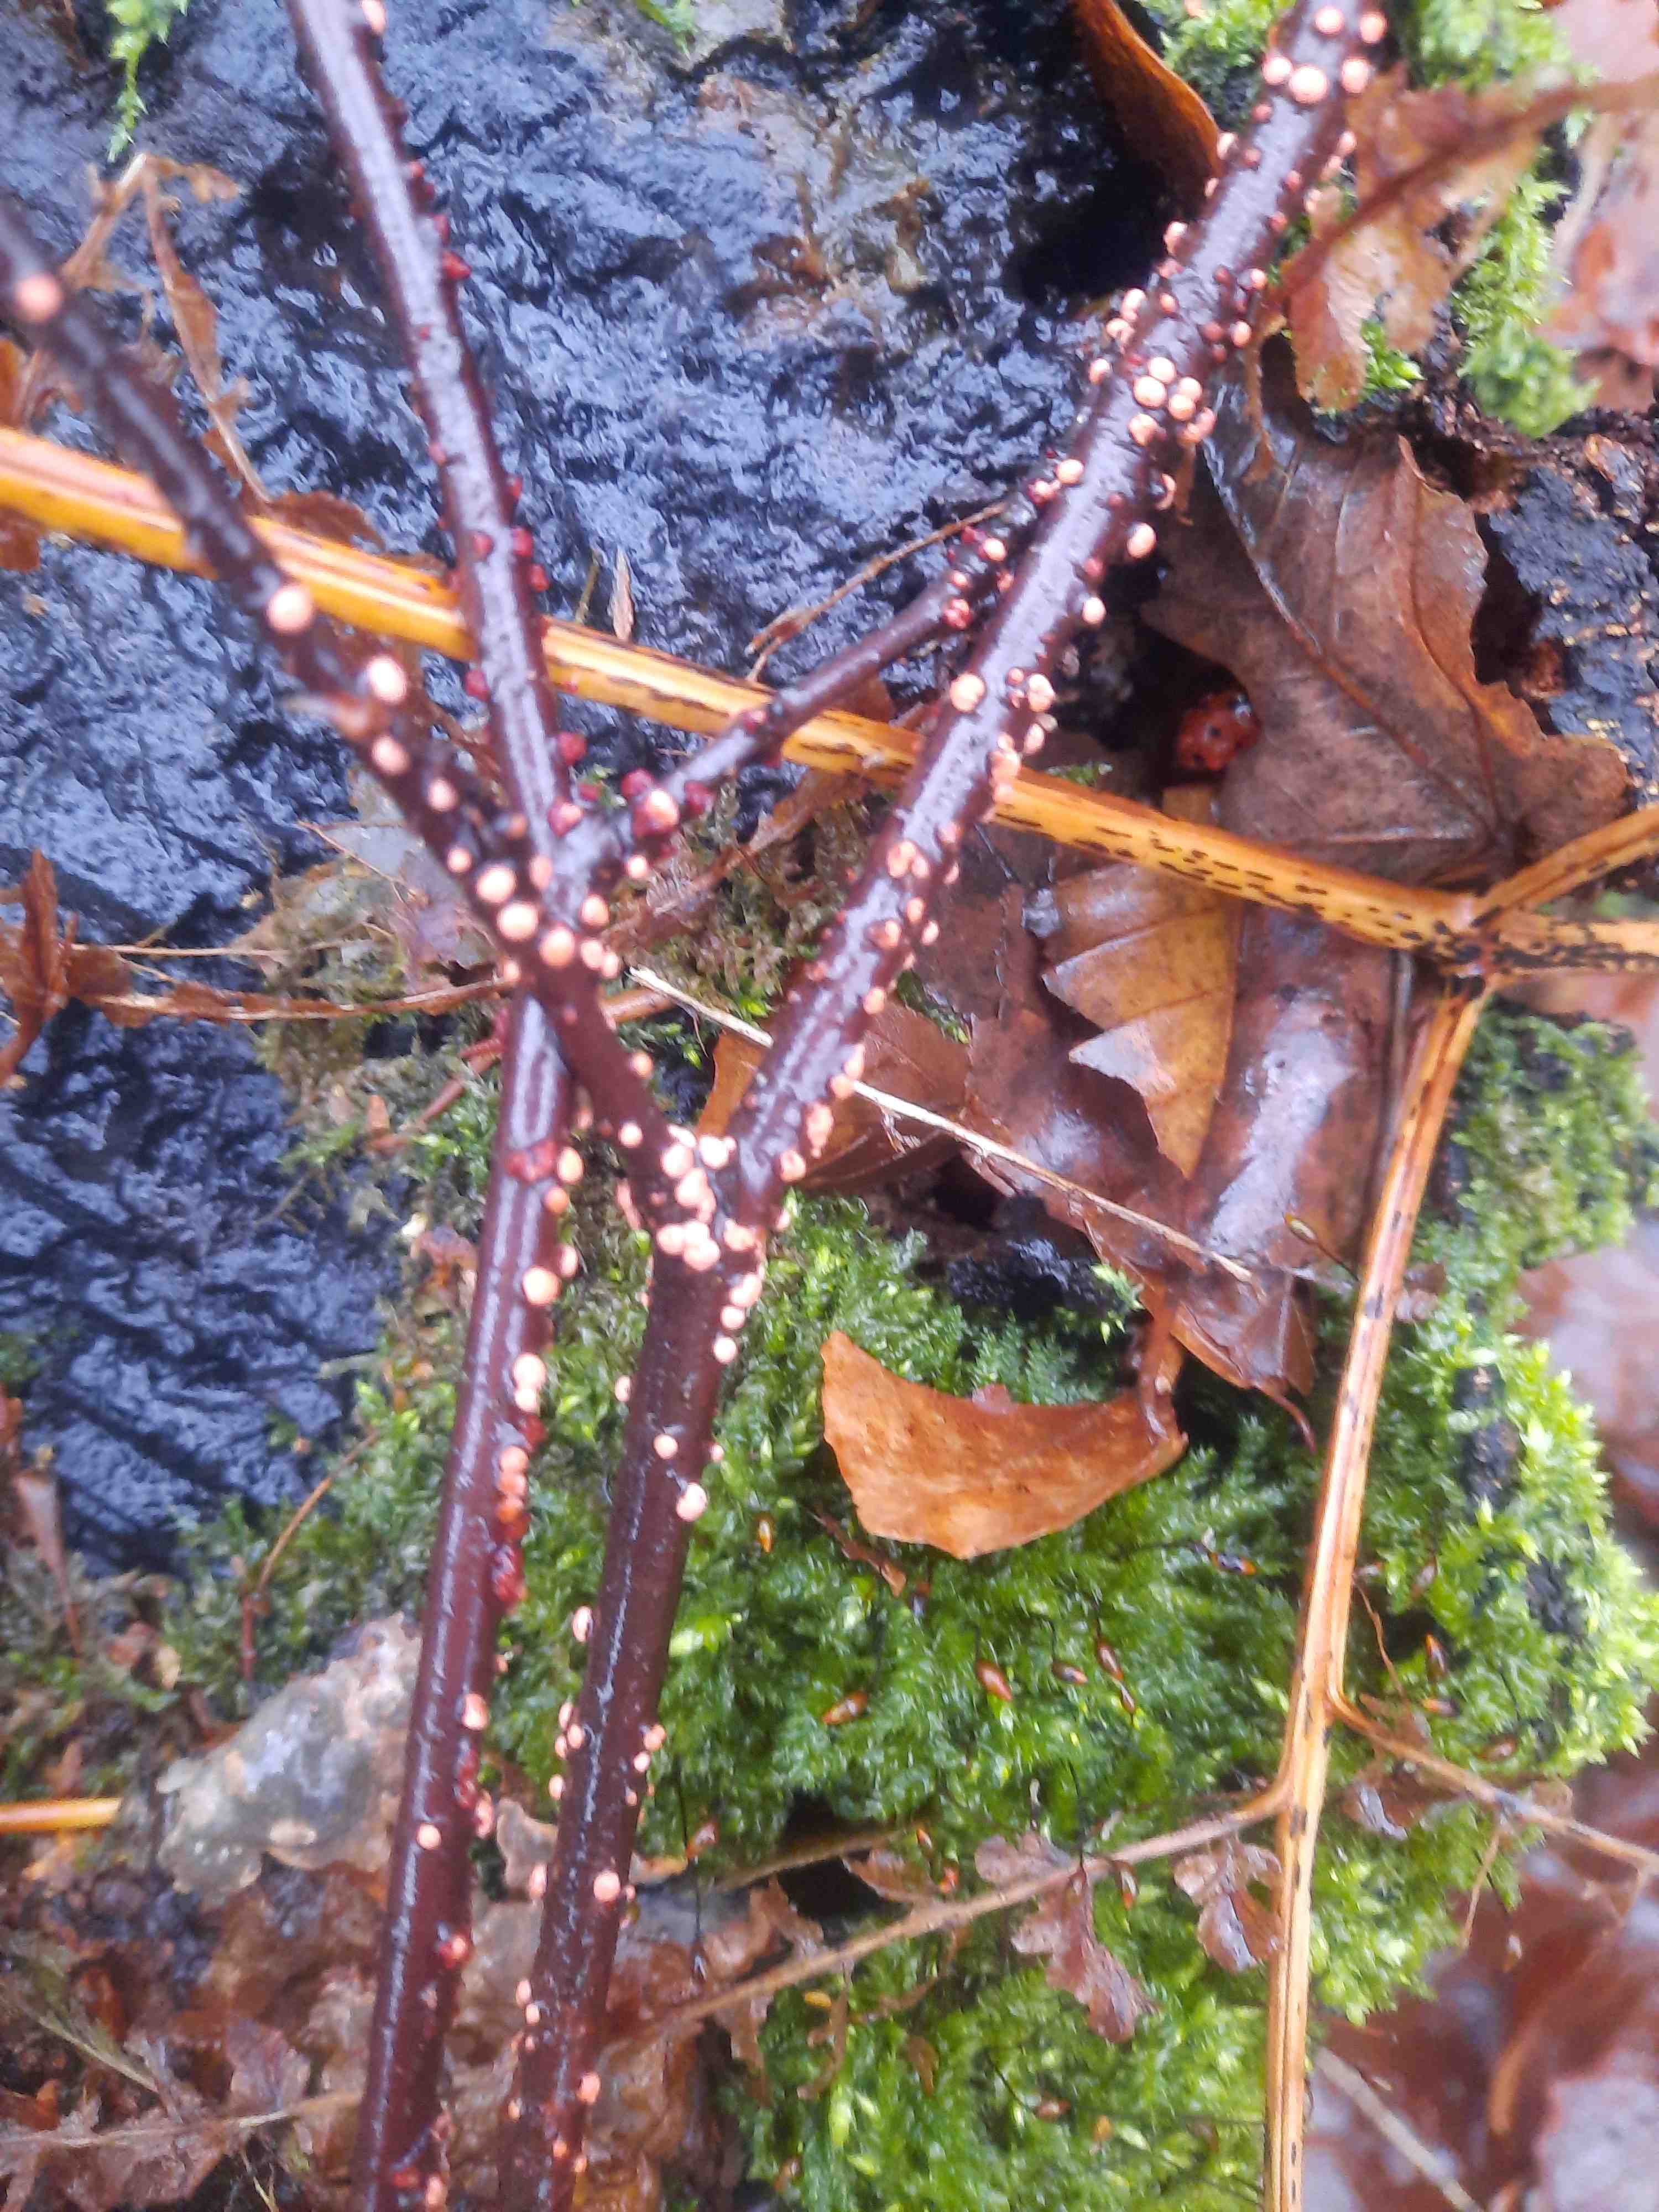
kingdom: Fungi
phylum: Ascomycota
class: Sordariomycetes
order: Hypocreales
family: Nectriaceae
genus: Nectria
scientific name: Nectria cinnabarina
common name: almindelig cinnobersvamp
